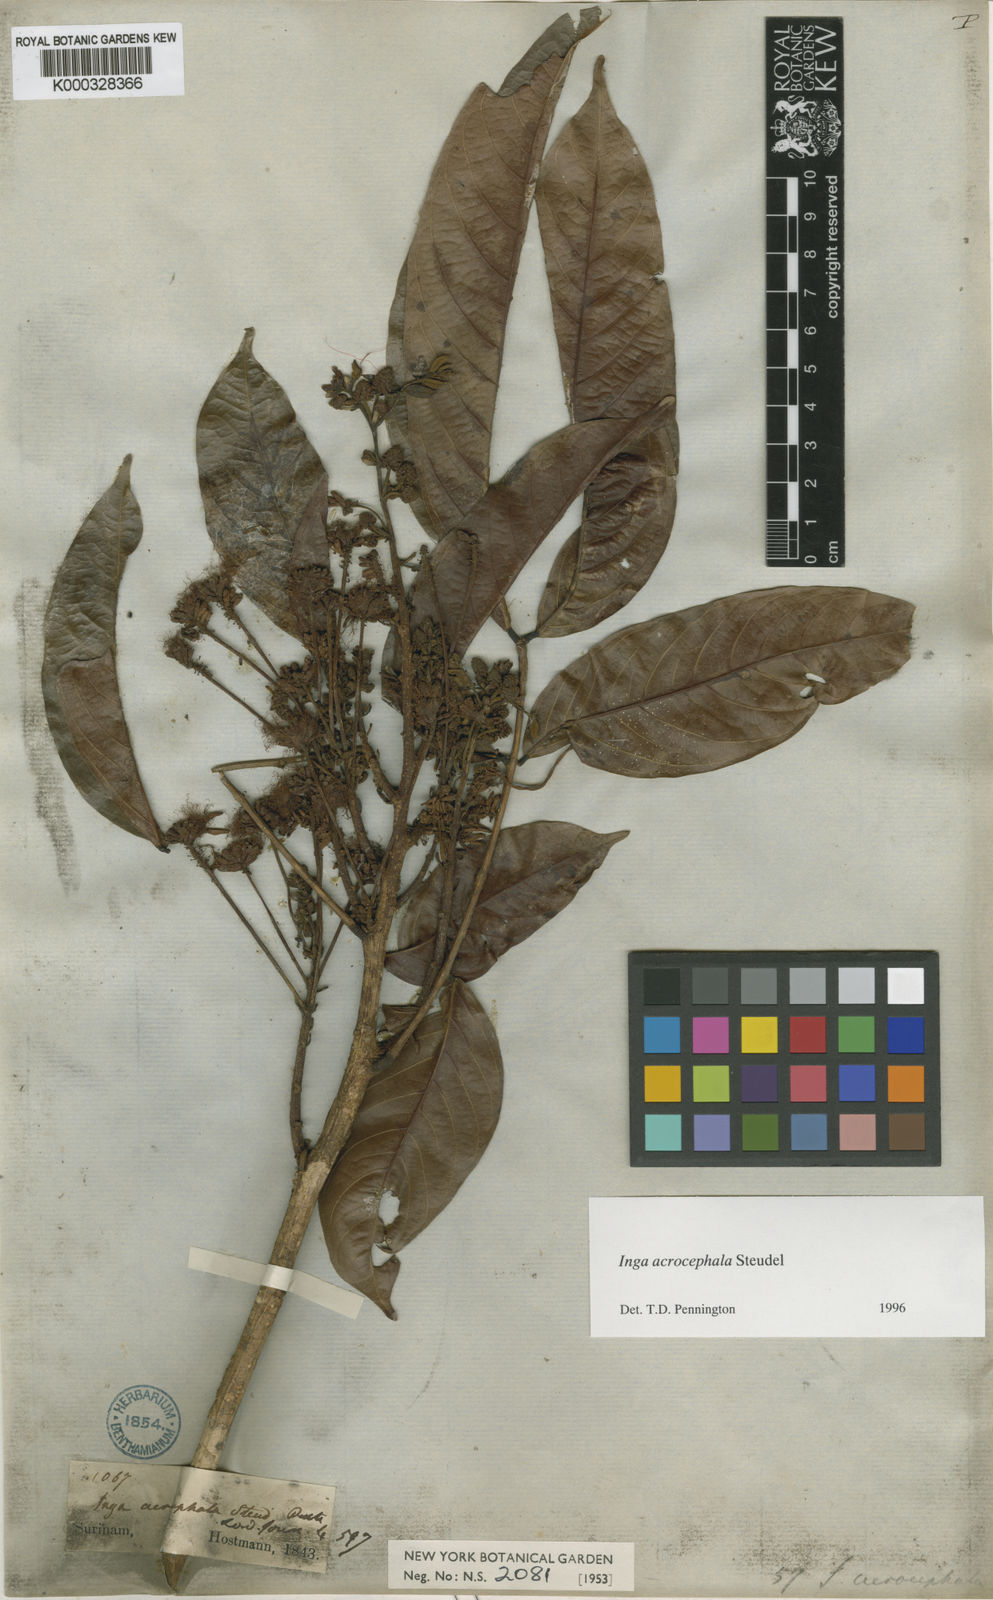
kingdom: Plantae
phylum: Tracheophyta
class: Magnoliopsida
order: Fabales
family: Fabaceae
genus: Inga
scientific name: Inga acrocephala
